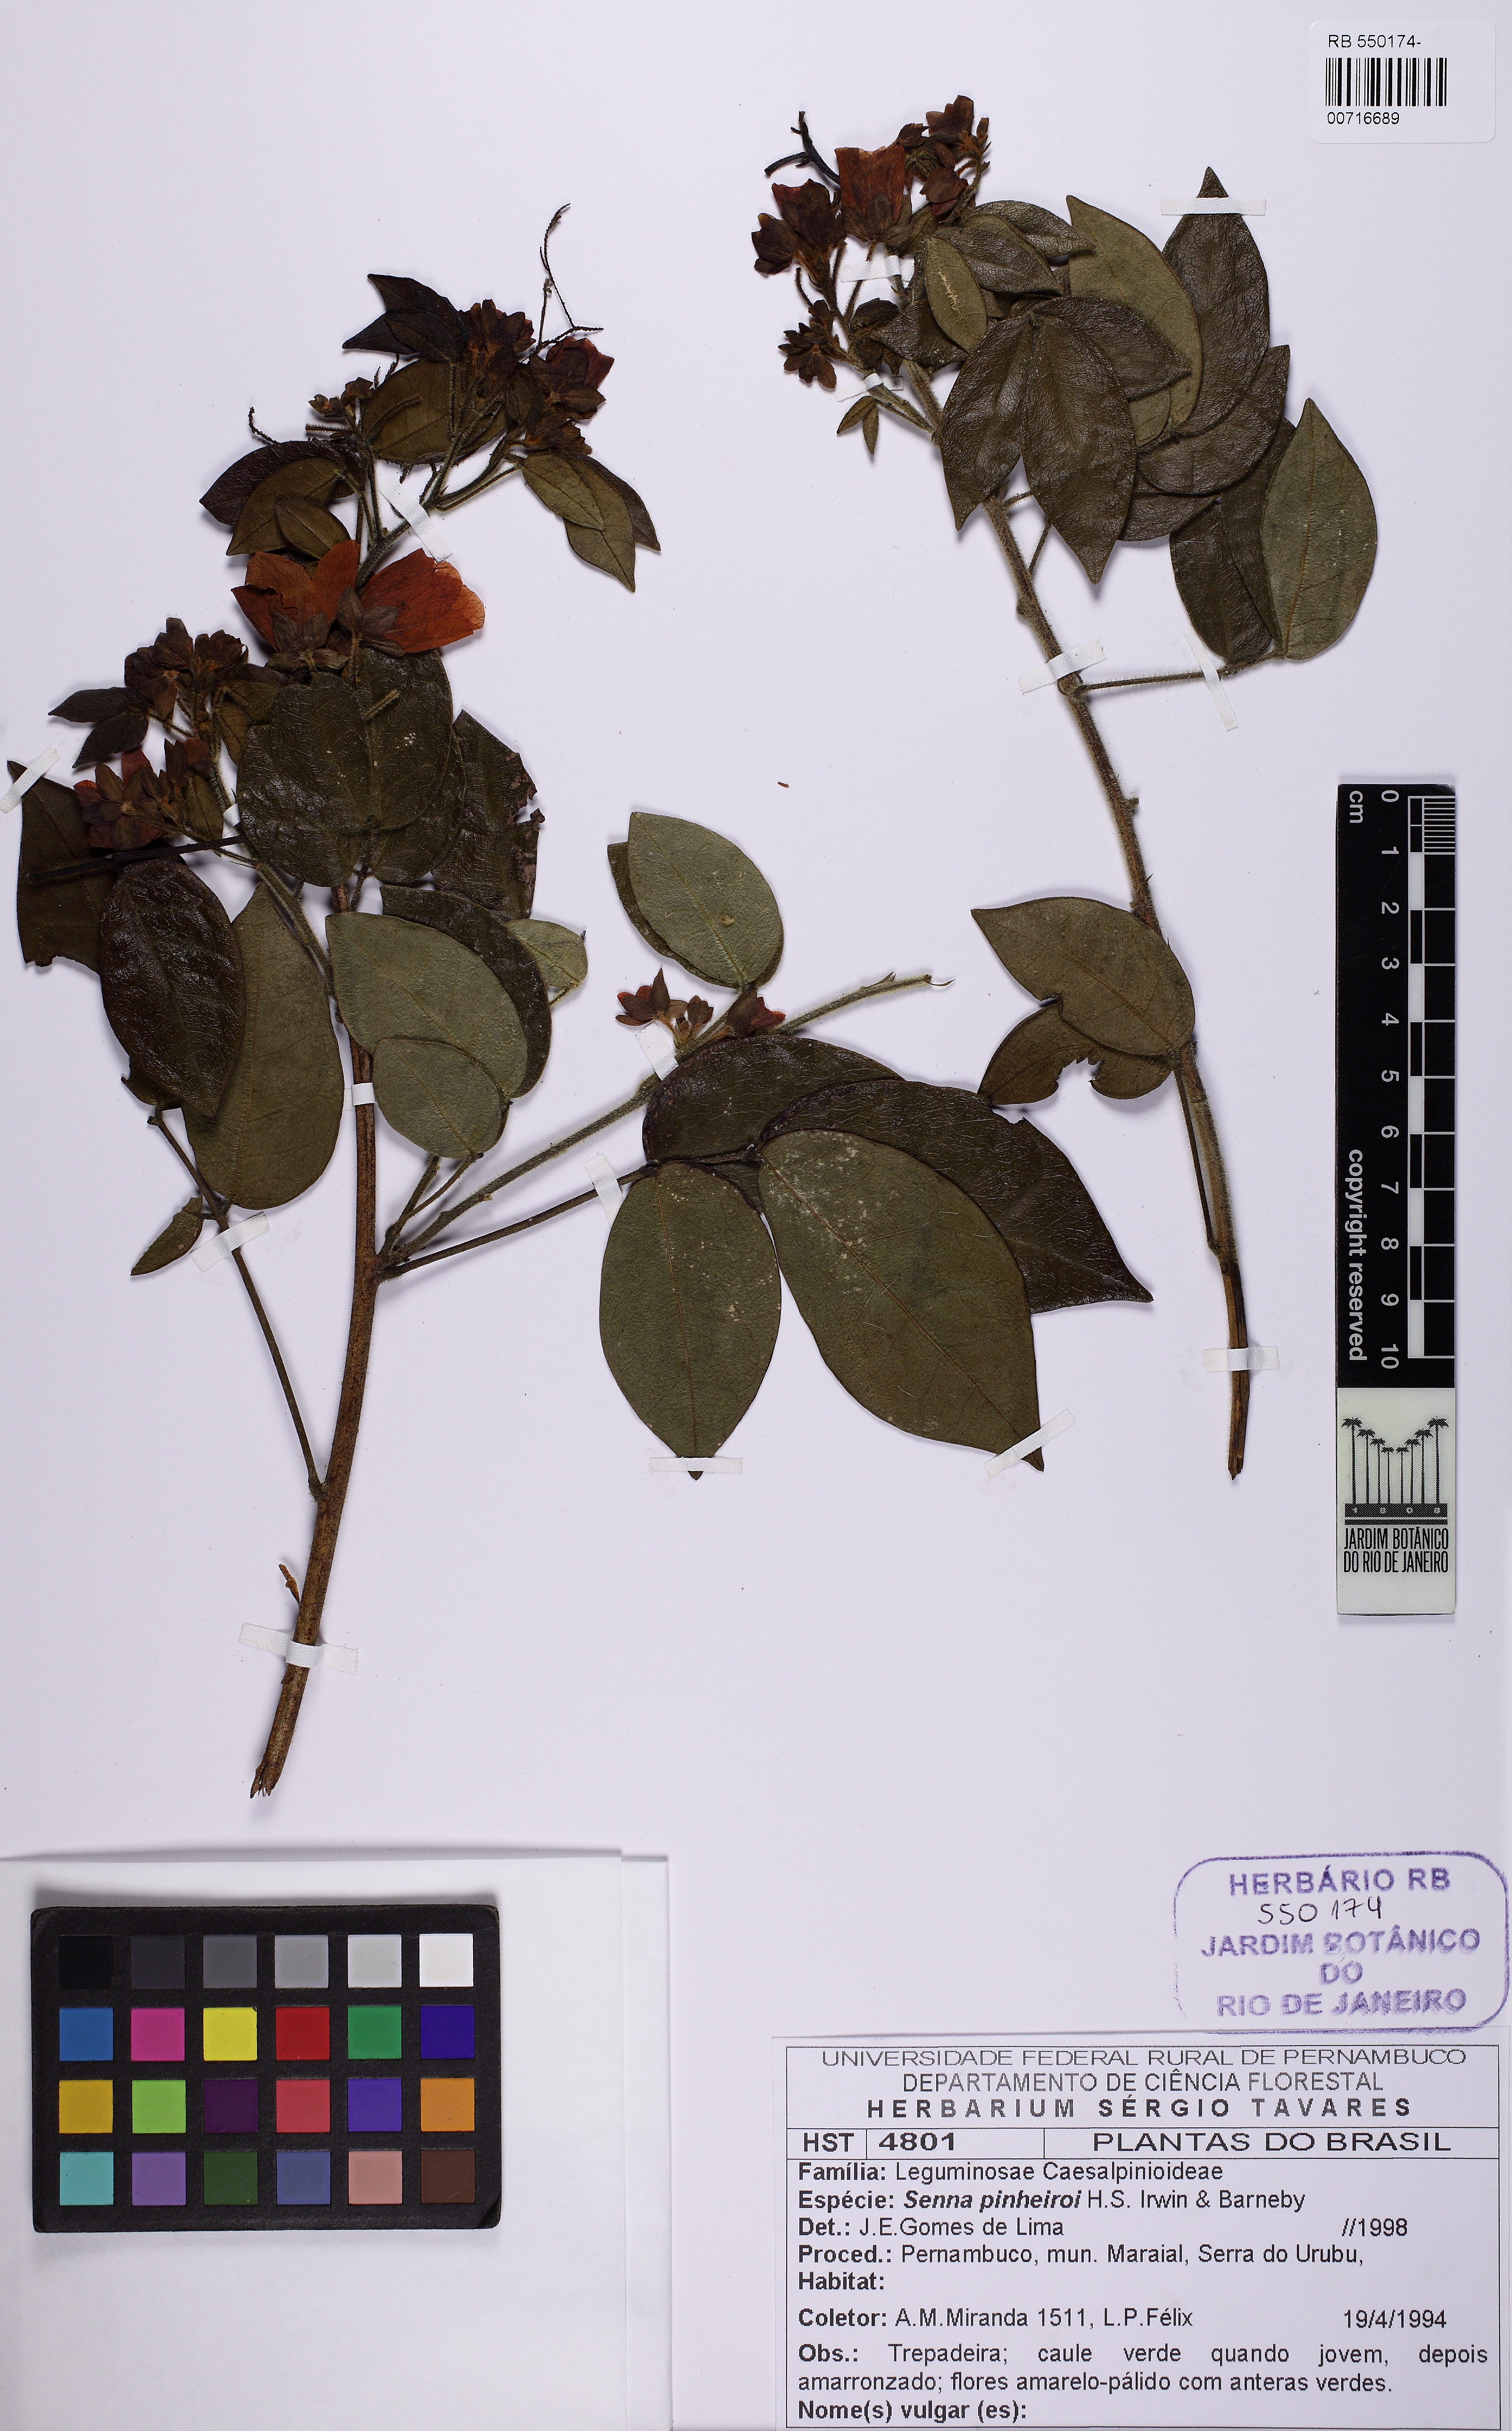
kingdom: Plantae
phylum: Tracheophyta
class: Magnoliopsida
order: Fabales
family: Fabaceae
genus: Senna
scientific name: Senna pinheiroi
